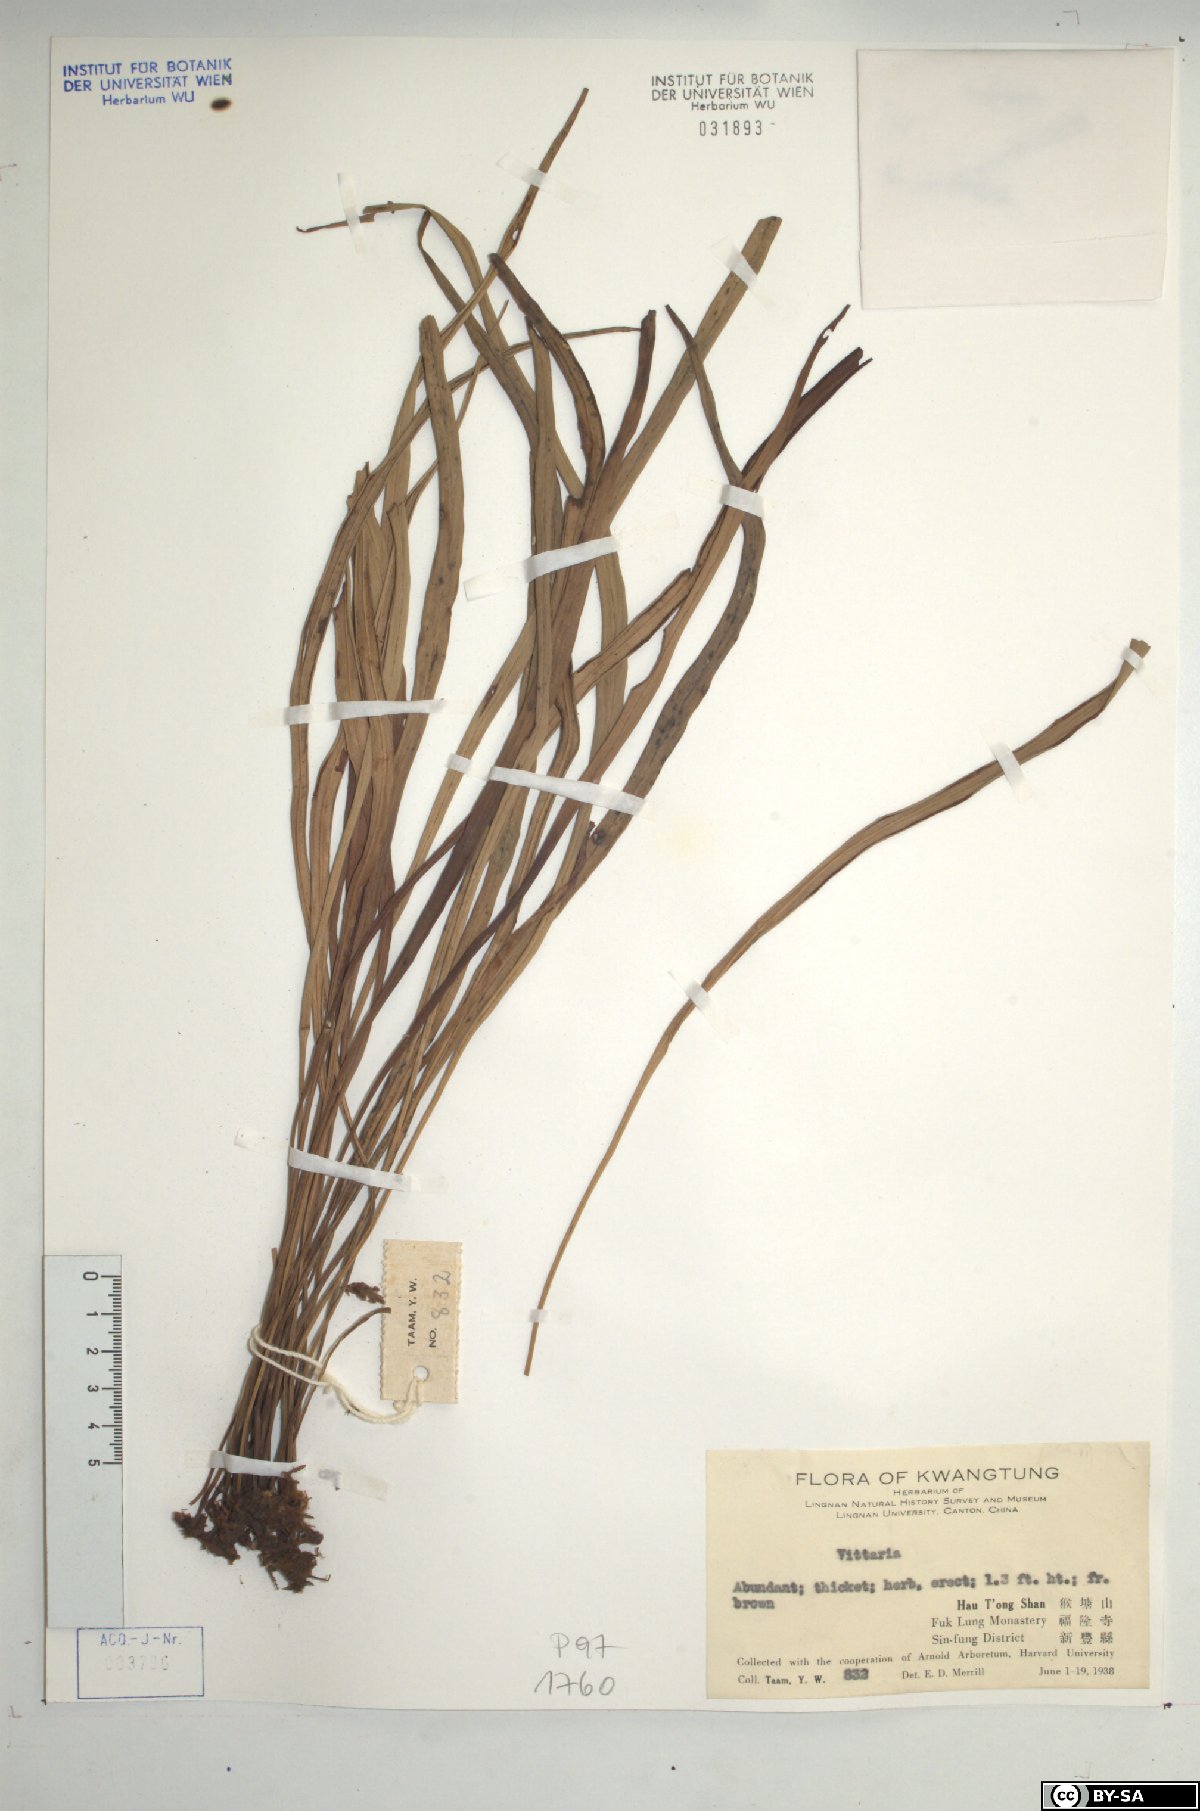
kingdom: Plantae
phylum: Tracheophyta
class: Polypodiopsida
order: Polypodiales
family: Pteridaceae
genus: Vittaria
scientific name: Vittaria
